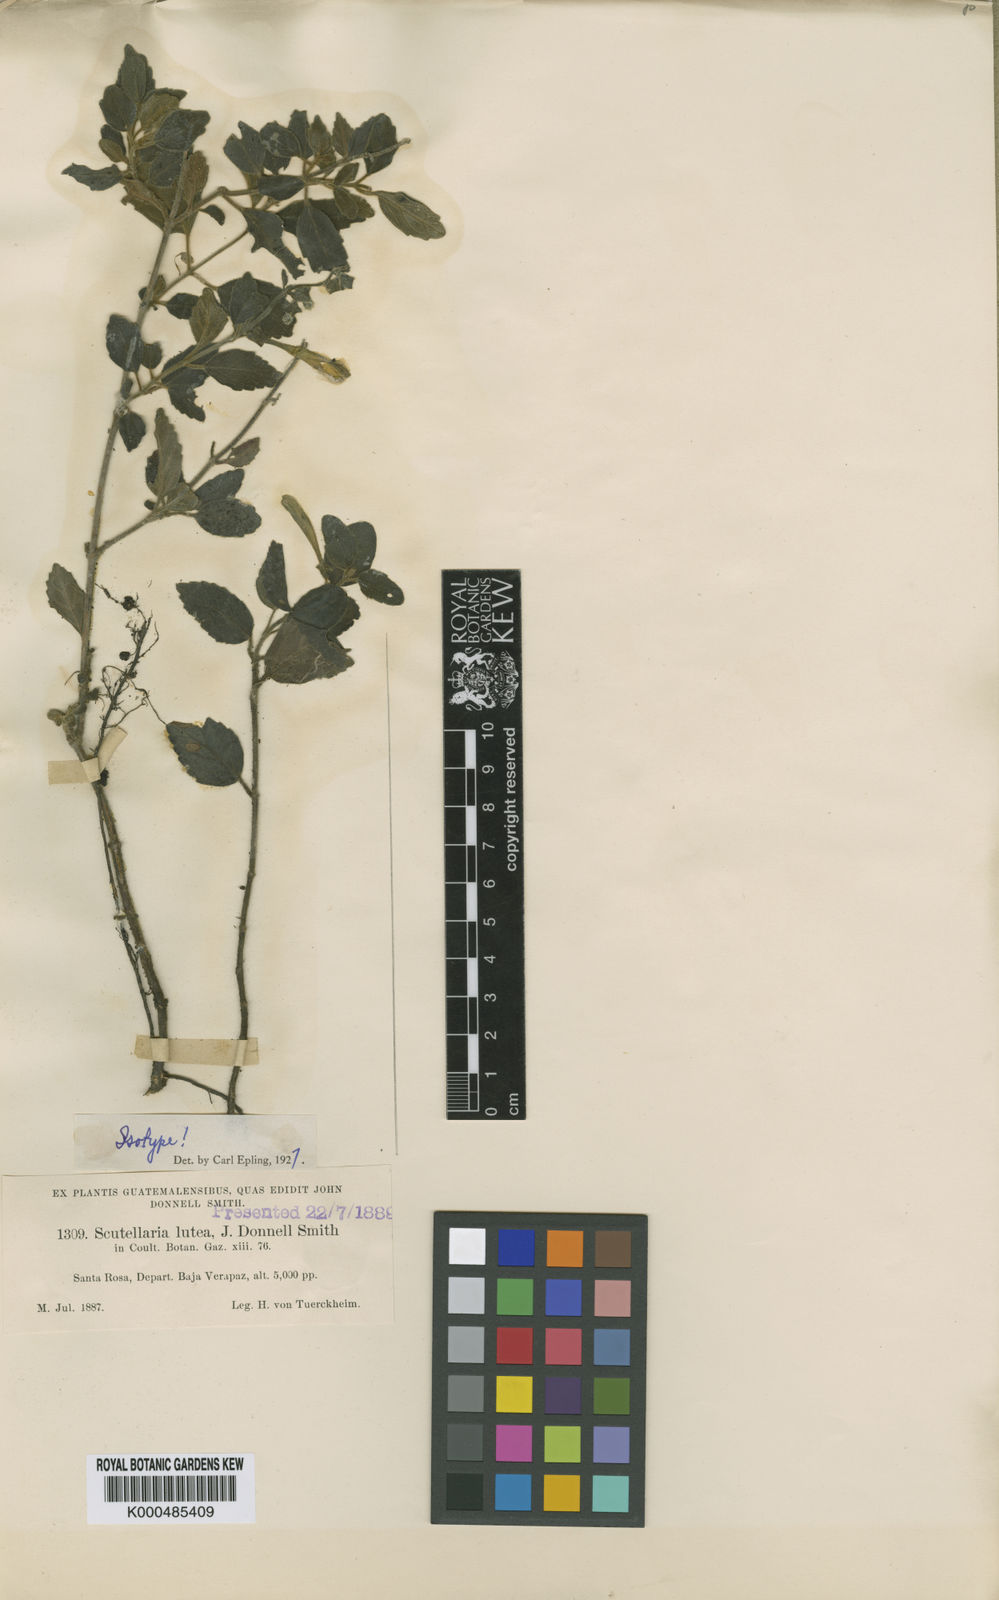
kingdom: Plantae
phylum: Tracheophyta
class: Magnoliopsida
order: Lamiales
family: Lamiaceae
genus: Scutellaria
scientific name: Scutellaria lutea
